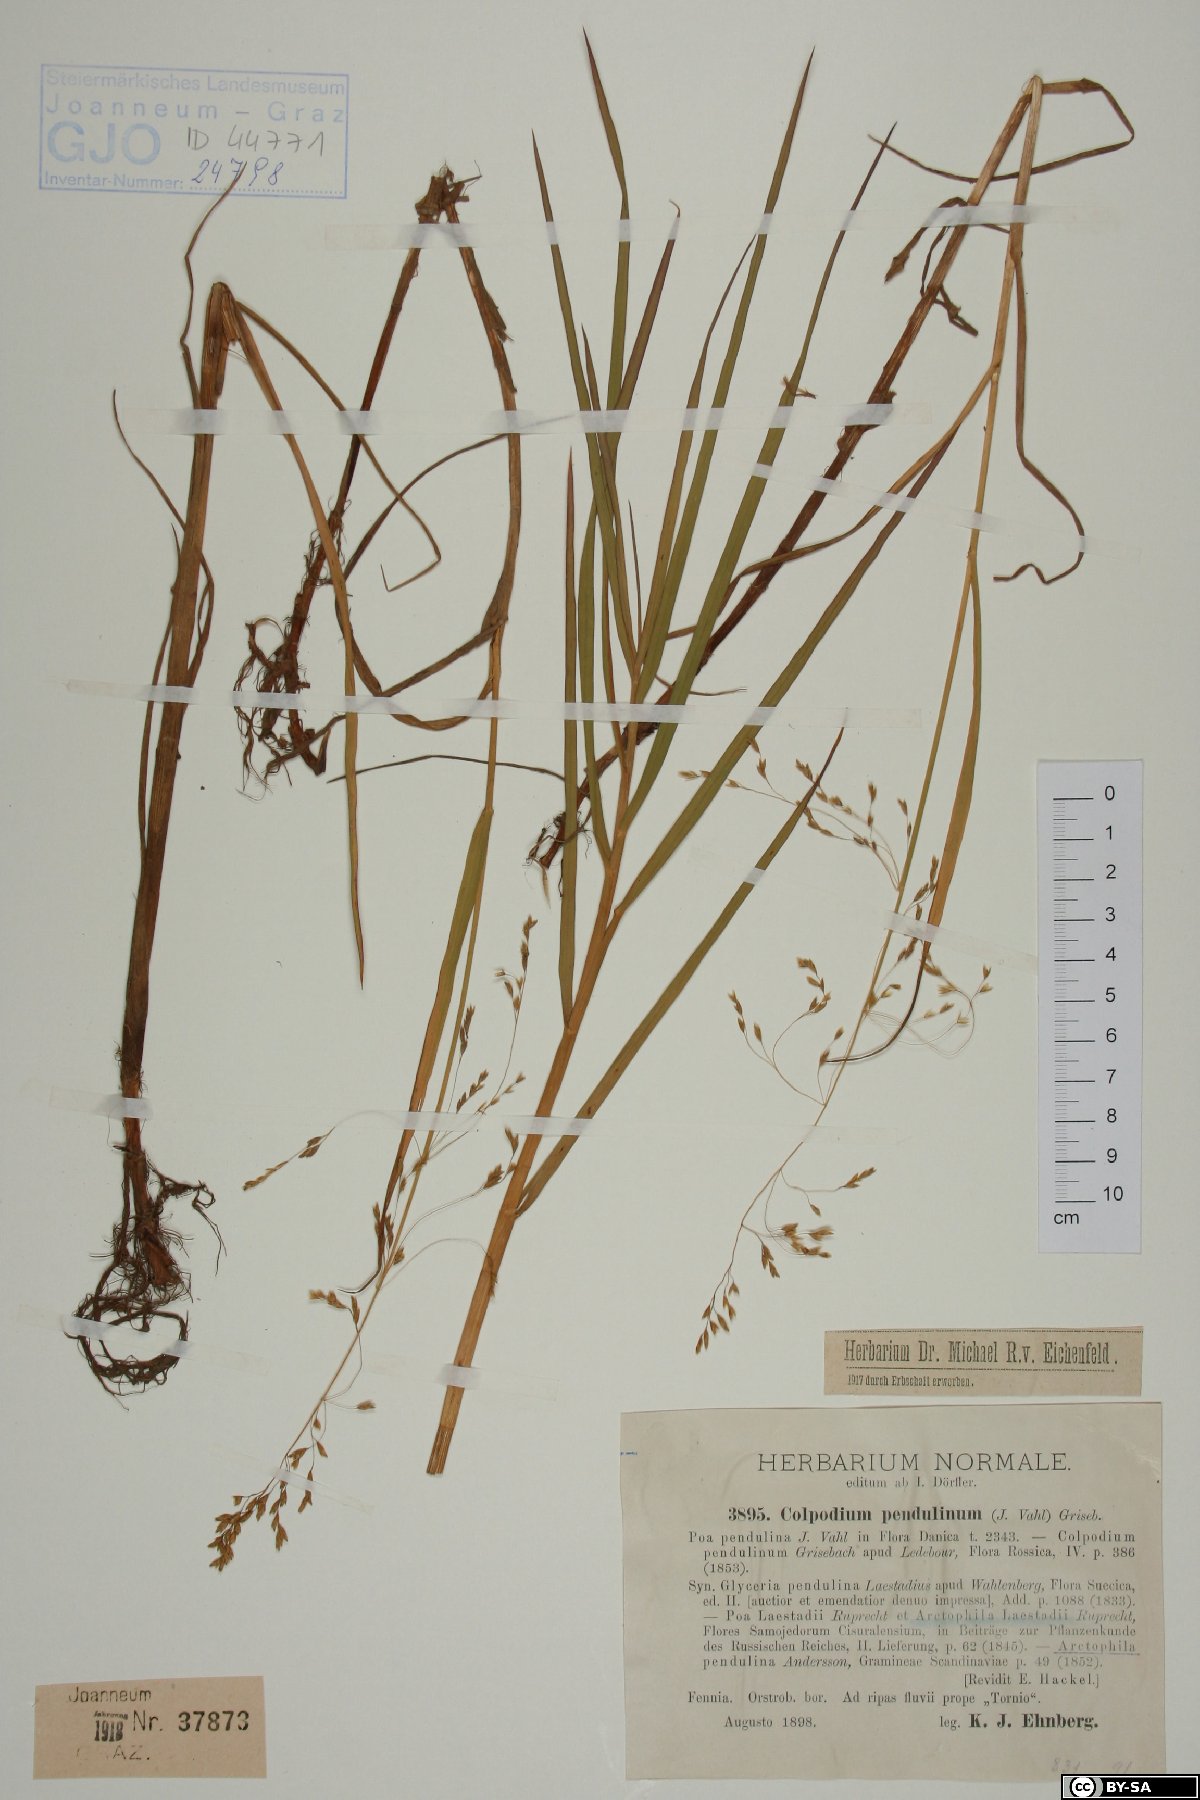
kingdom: Plantae
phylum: Tracheophyta
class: Liliopsida
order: Poales
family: Poaceae
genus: Dupontia
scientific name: Dupontia fulva
